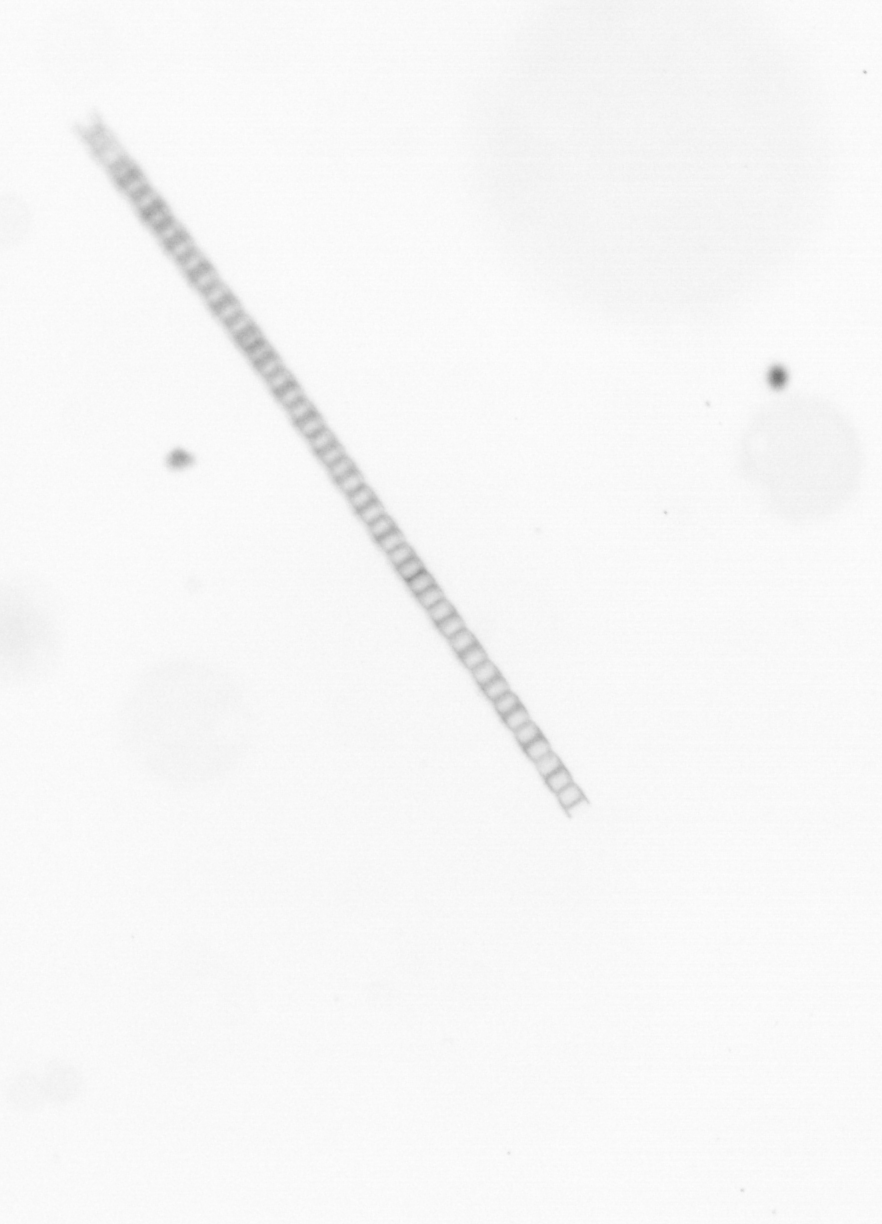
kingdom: Chromista
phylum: Ochrophyta
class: Bacillariophyceae
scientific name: Bacillariophyceae
